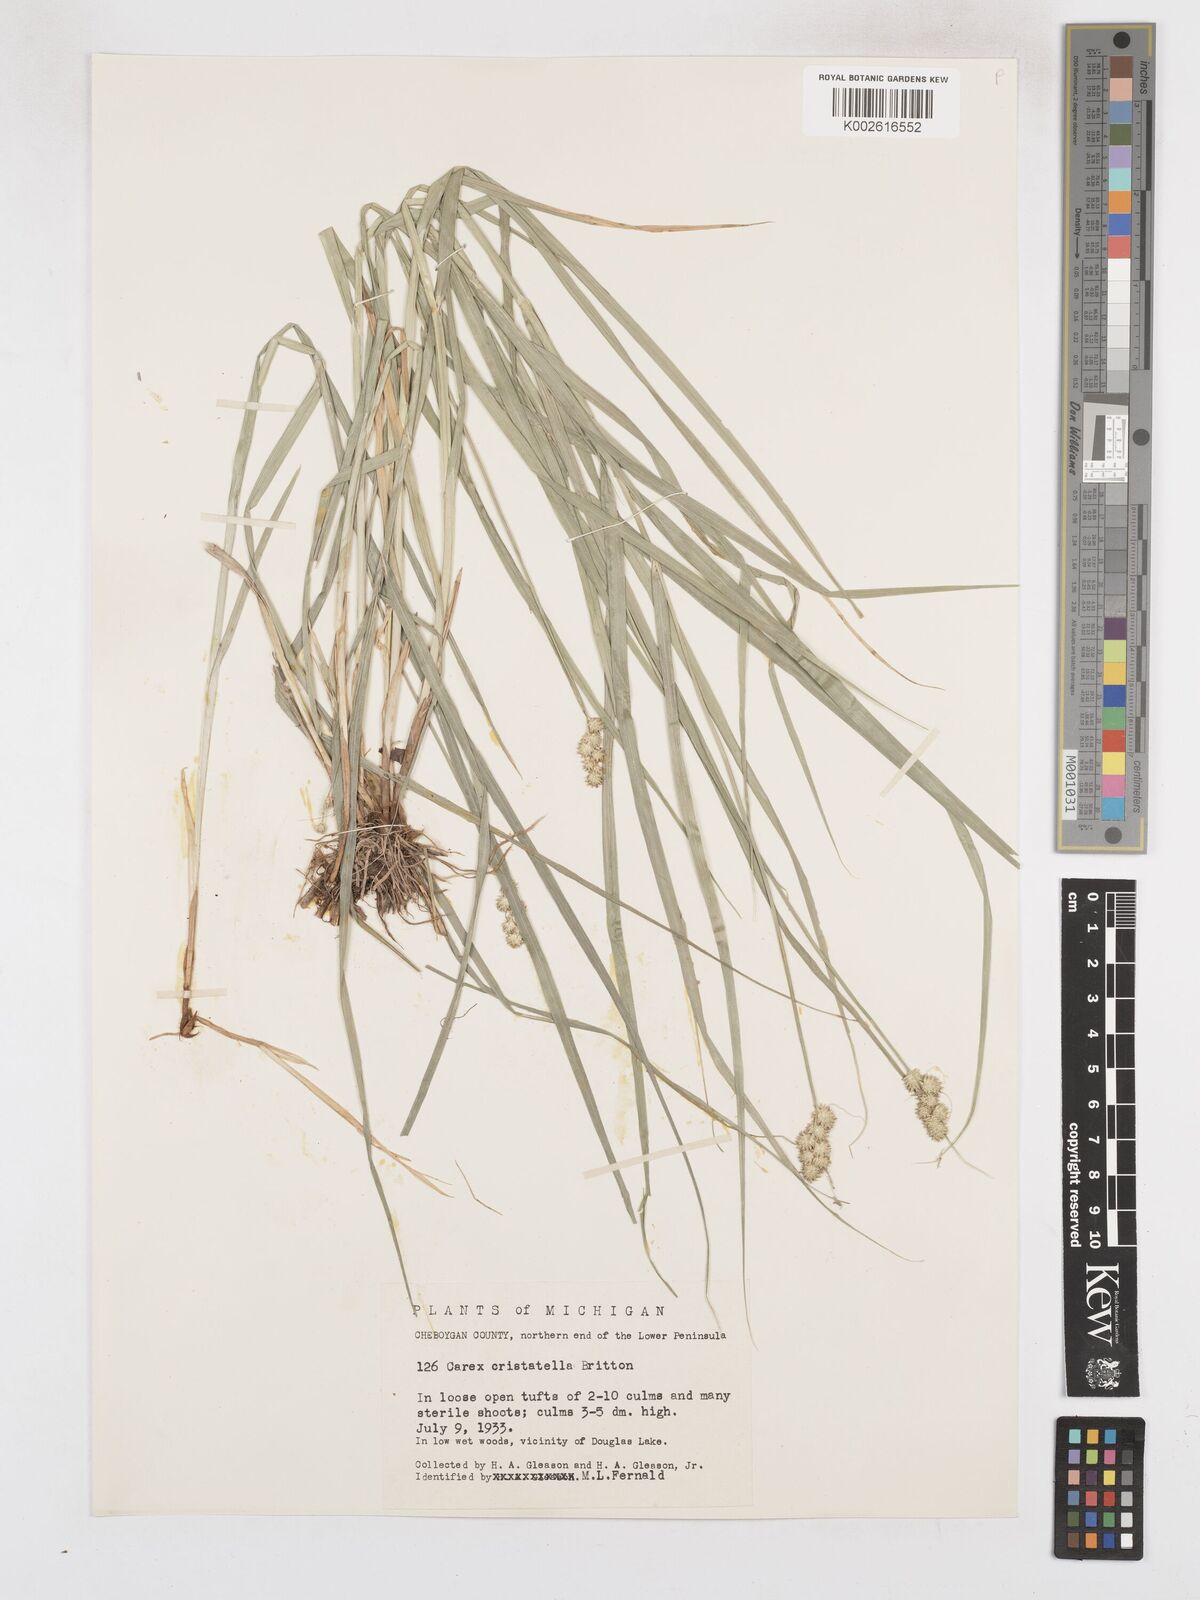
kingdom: Plantae
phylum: Tracheophyta
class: Liliopsida
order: Poales
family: Cyperaceae
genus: Carex
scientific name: Carex cristatella
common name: Crested oval sedge
